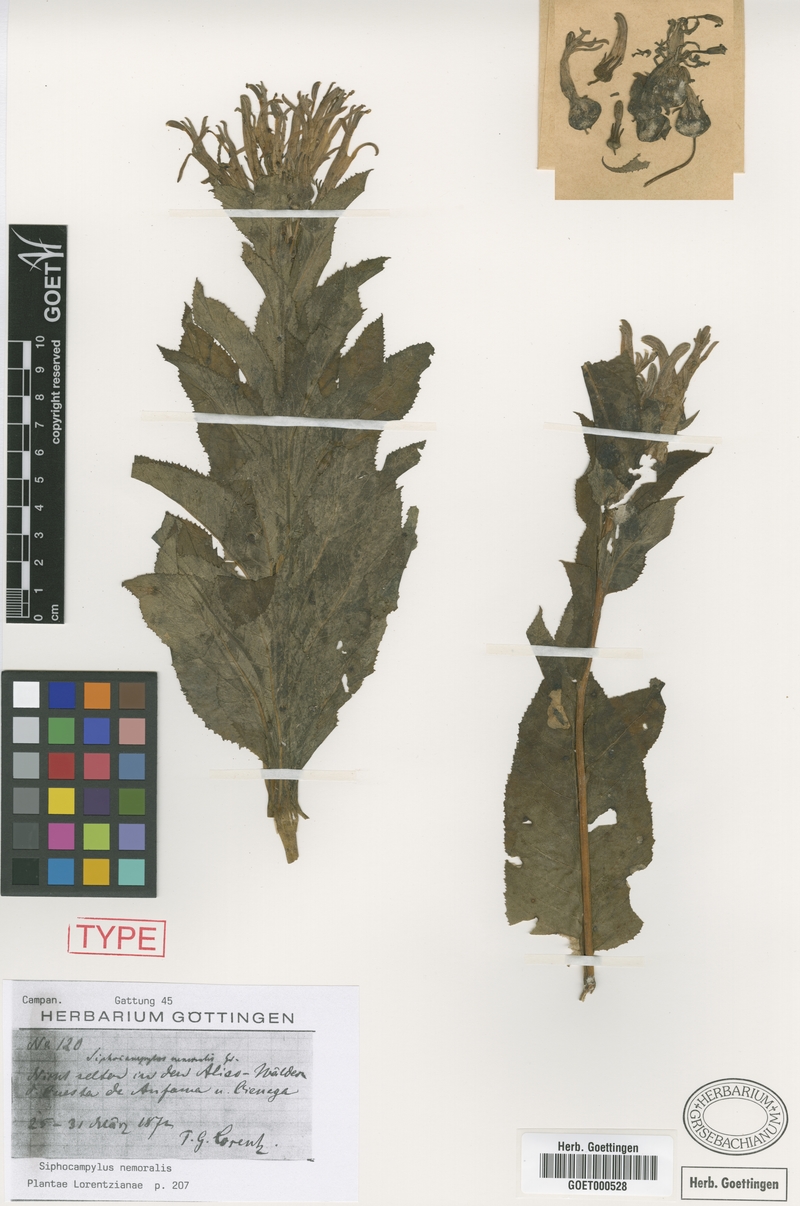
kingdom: Plantae
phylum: Tracheophyta
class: Magnoliopsida
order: Asterales
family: Campanulaceae
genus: Siphocampylus
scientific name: Siphocampylus nemoralis
